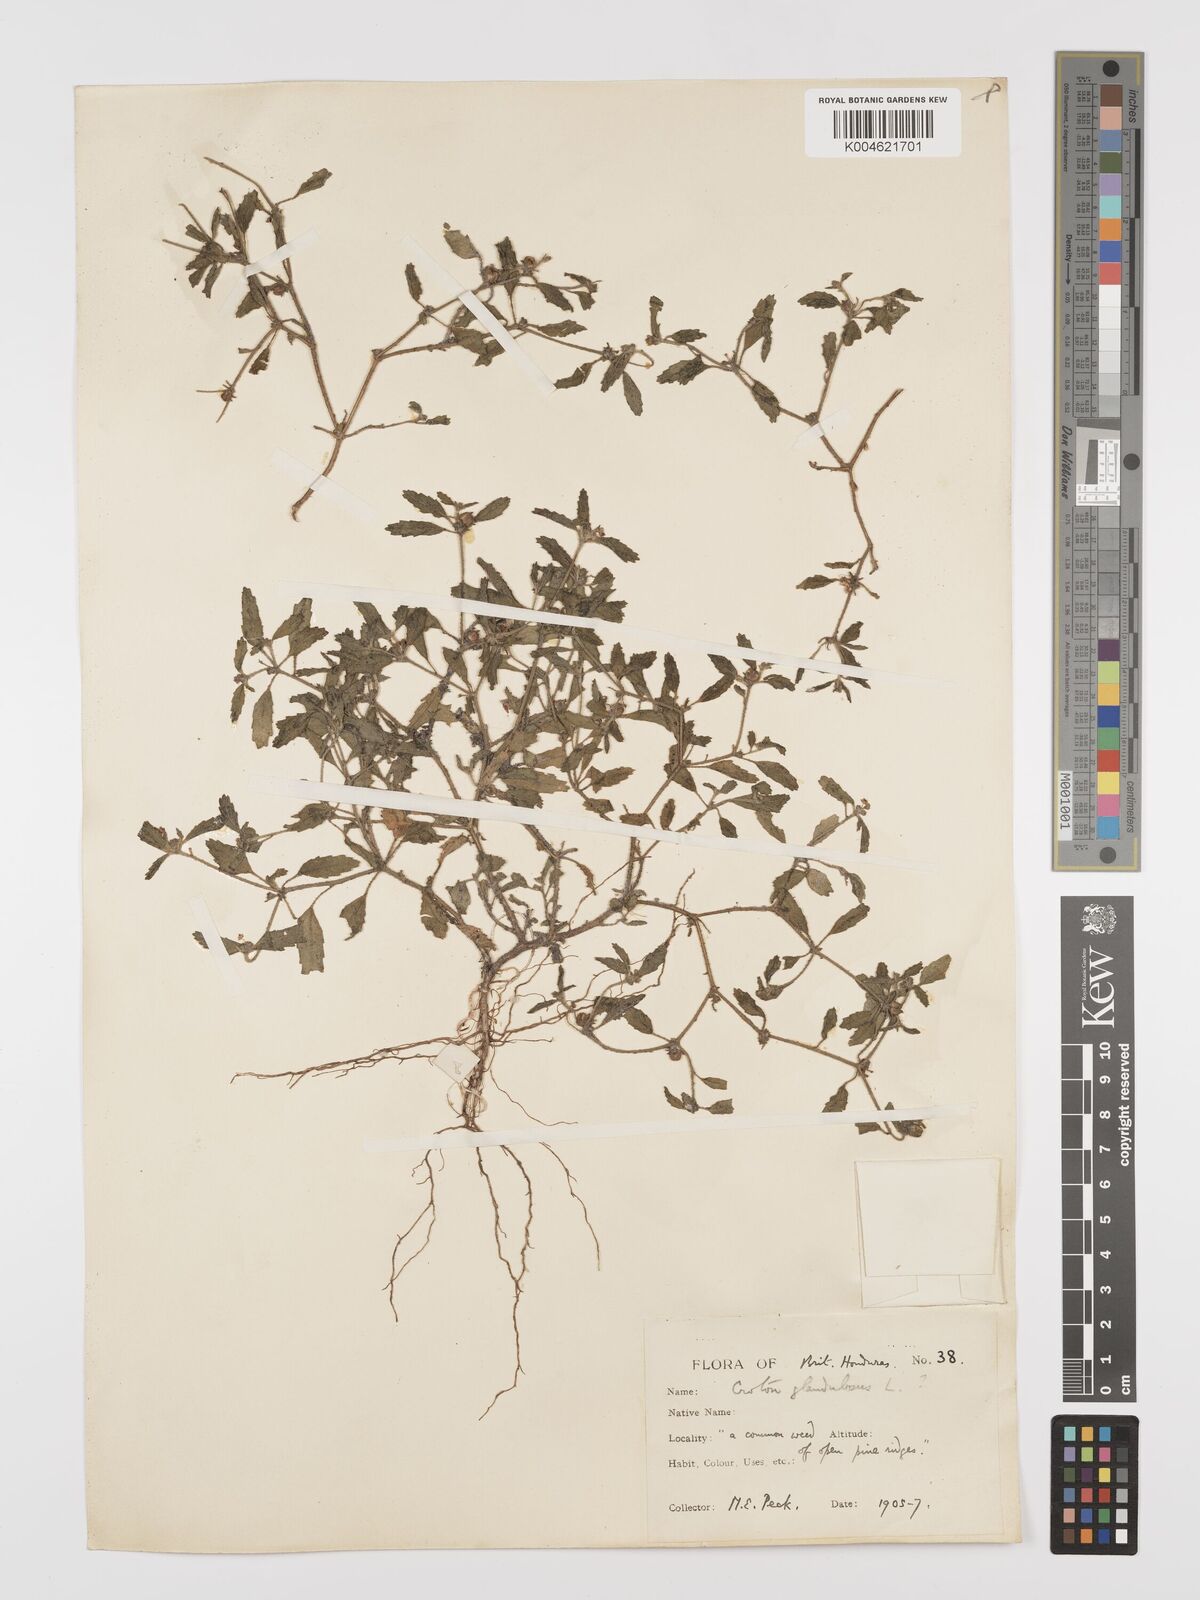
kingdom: Plantae
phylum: Tracheophyta
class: Magnoliopsida
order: Malpighiales
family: Euphorbiaceae
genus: Croton
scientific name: Croton glandulosus
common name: Tropic croton
